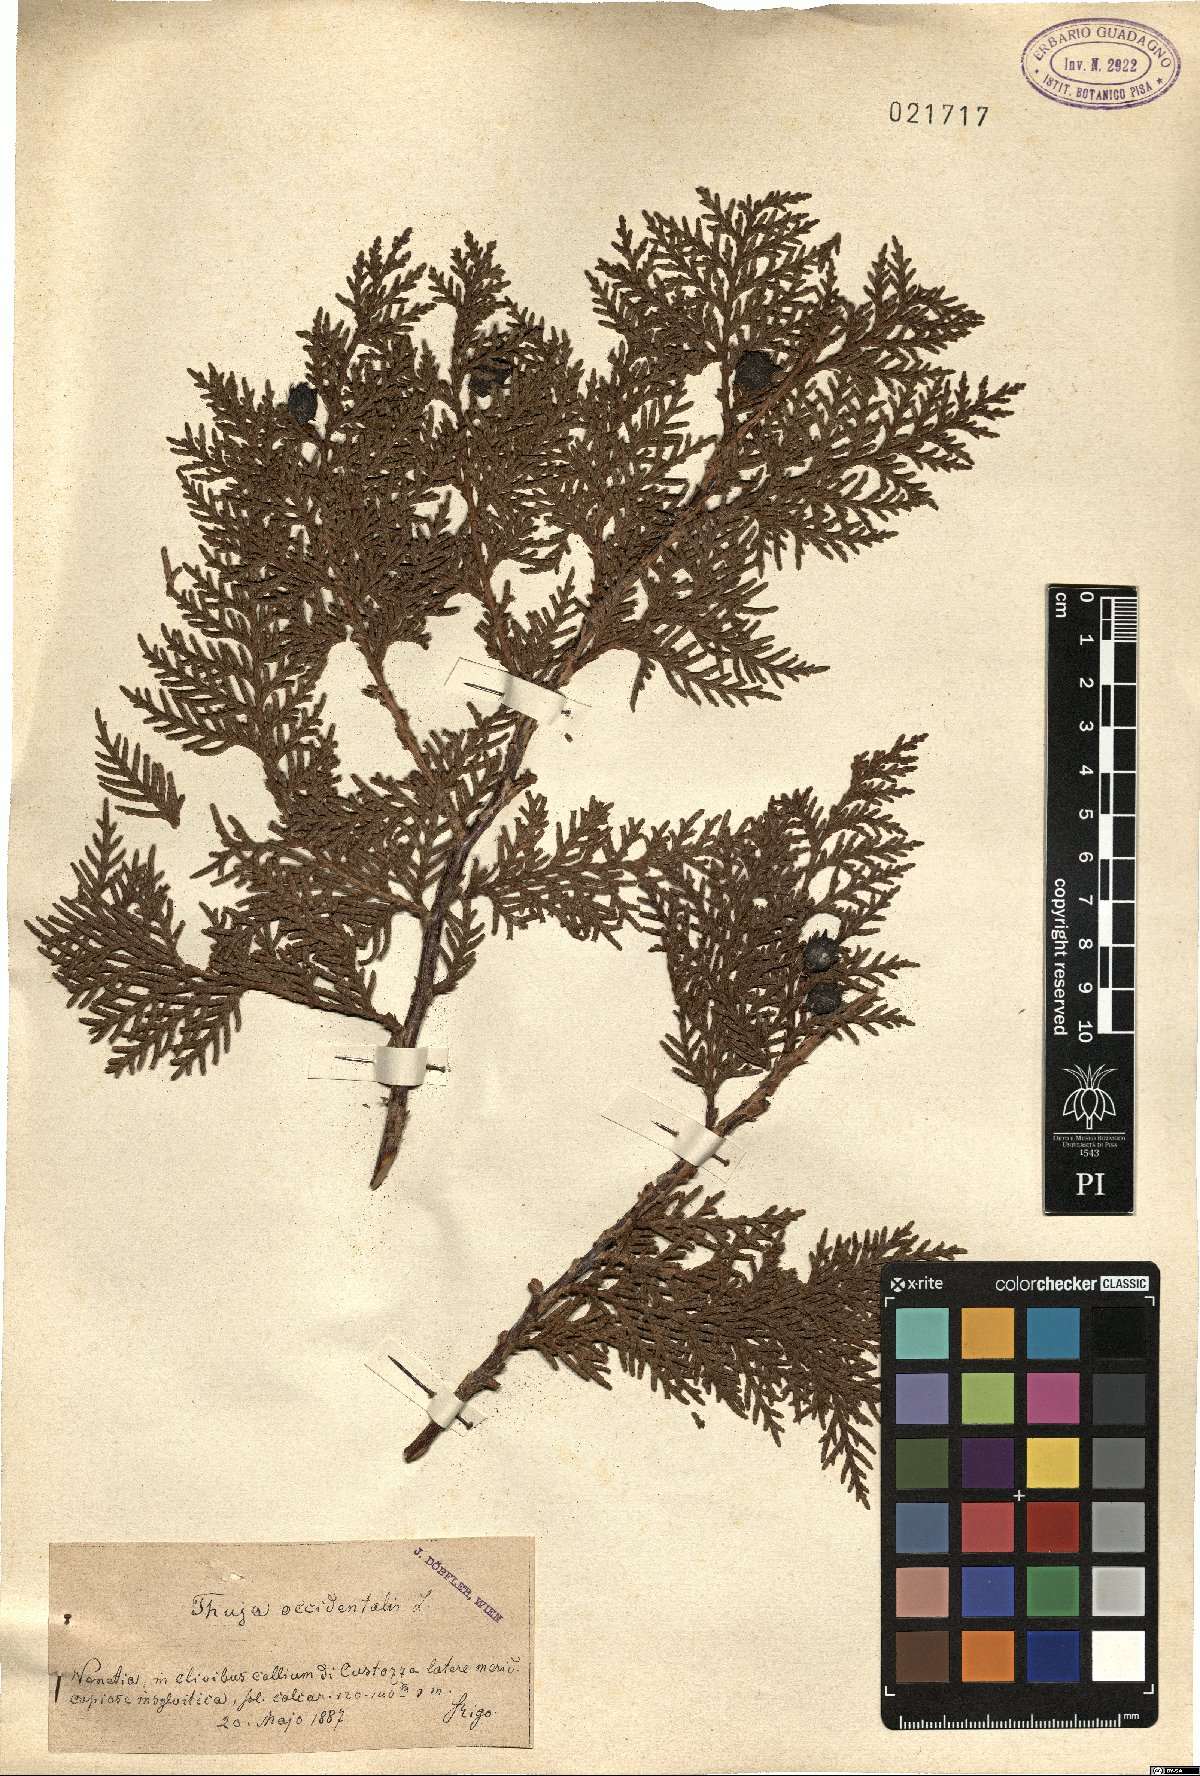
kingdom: Plantae
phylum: Tracheophyta
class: Pinopsida
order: Pinales
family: Cupressaceae
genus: Thuja
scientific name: Thuja occidentalis
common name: Northern white-cedar
